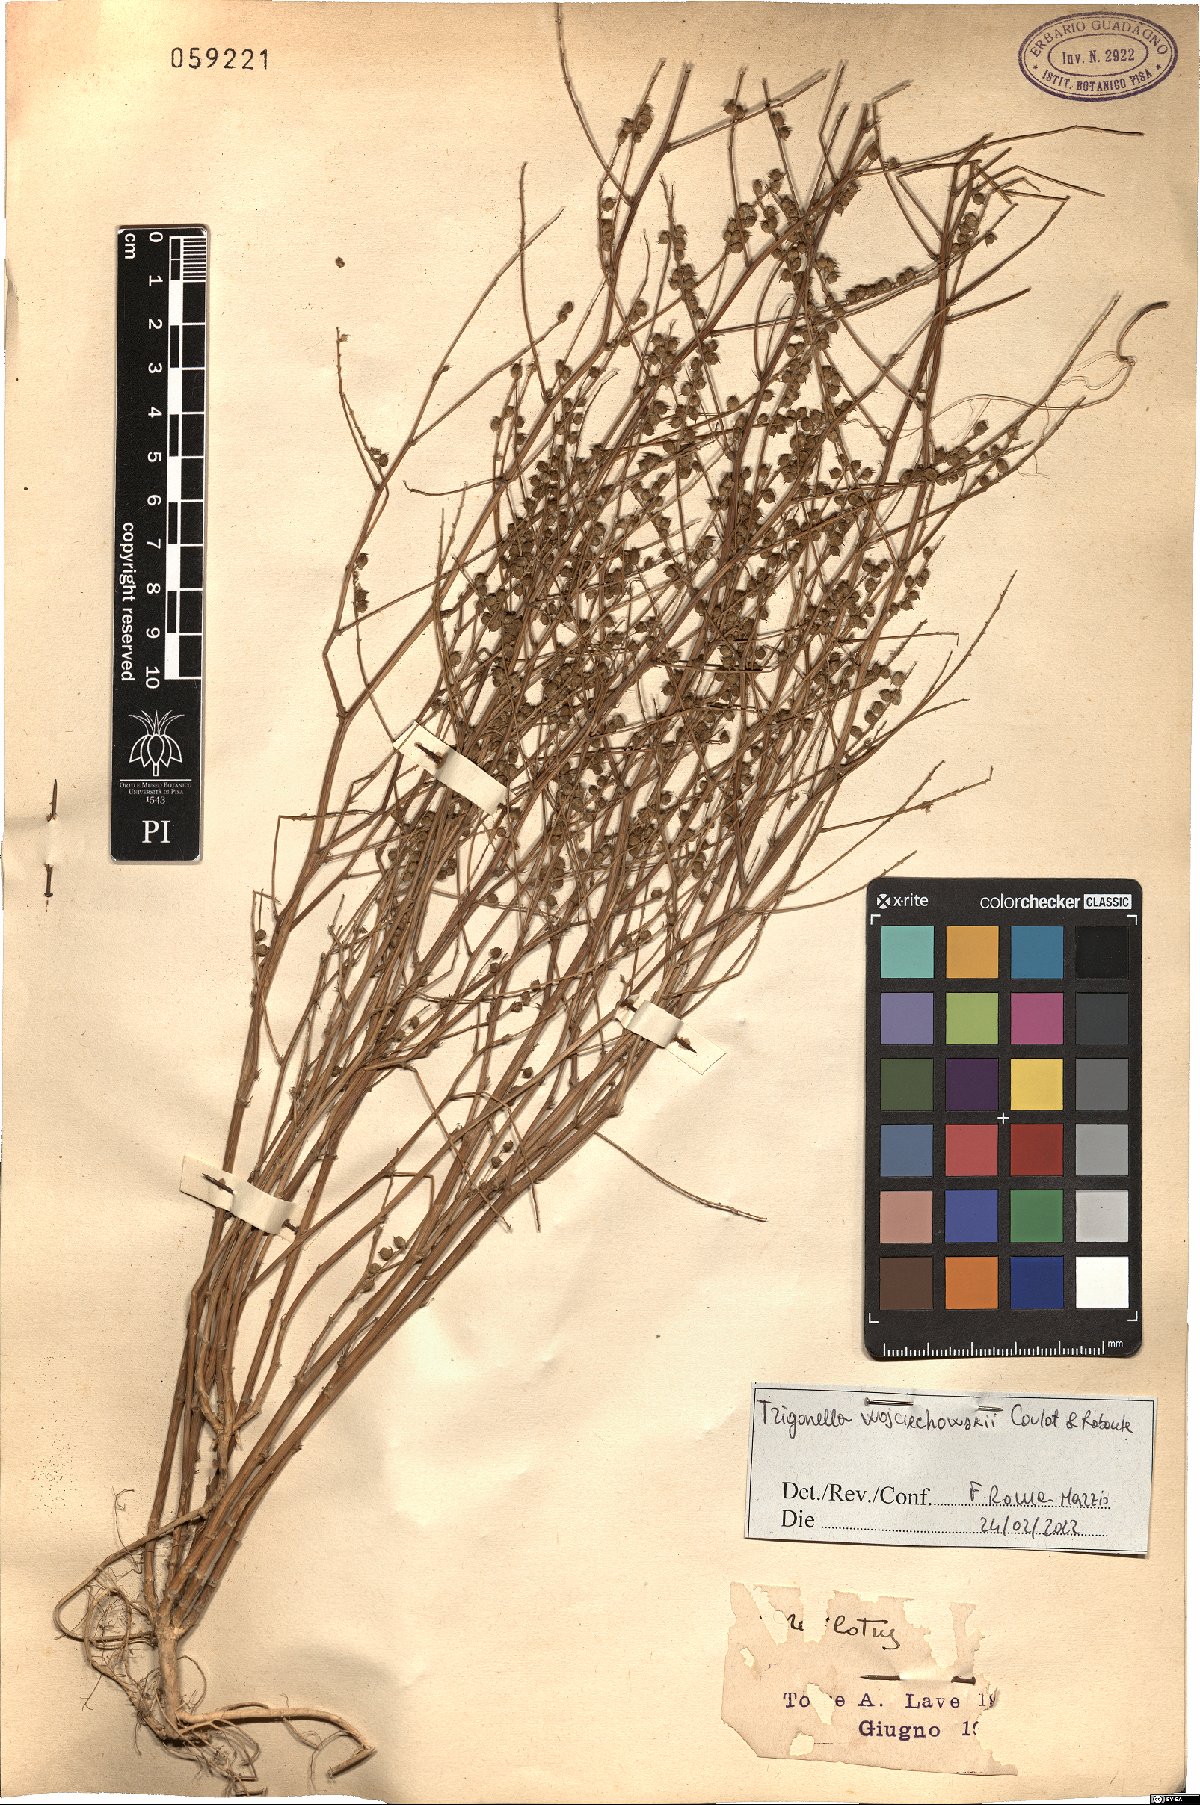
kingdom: Plantae
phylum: Tracheophyta
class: Magnoliopsida
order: Fabales
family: Fabaceae
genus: Melilotus
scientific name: Melilotus neapolitanus
